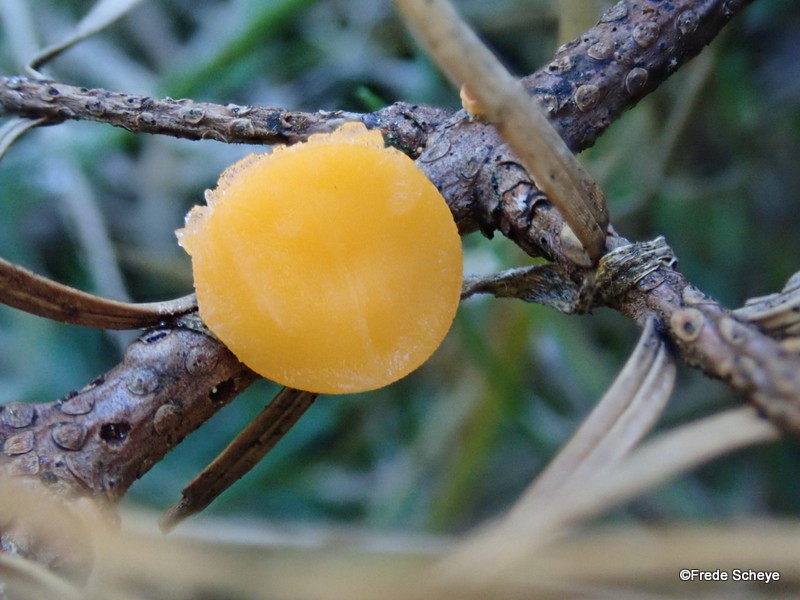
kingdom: Fungi
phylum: Ascomycota
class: Pezizomycetes
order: Pezizales
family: Sarcoscyphaceae
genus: Pithya
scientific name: Pithya vulgaris
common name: stor dukatbæger
